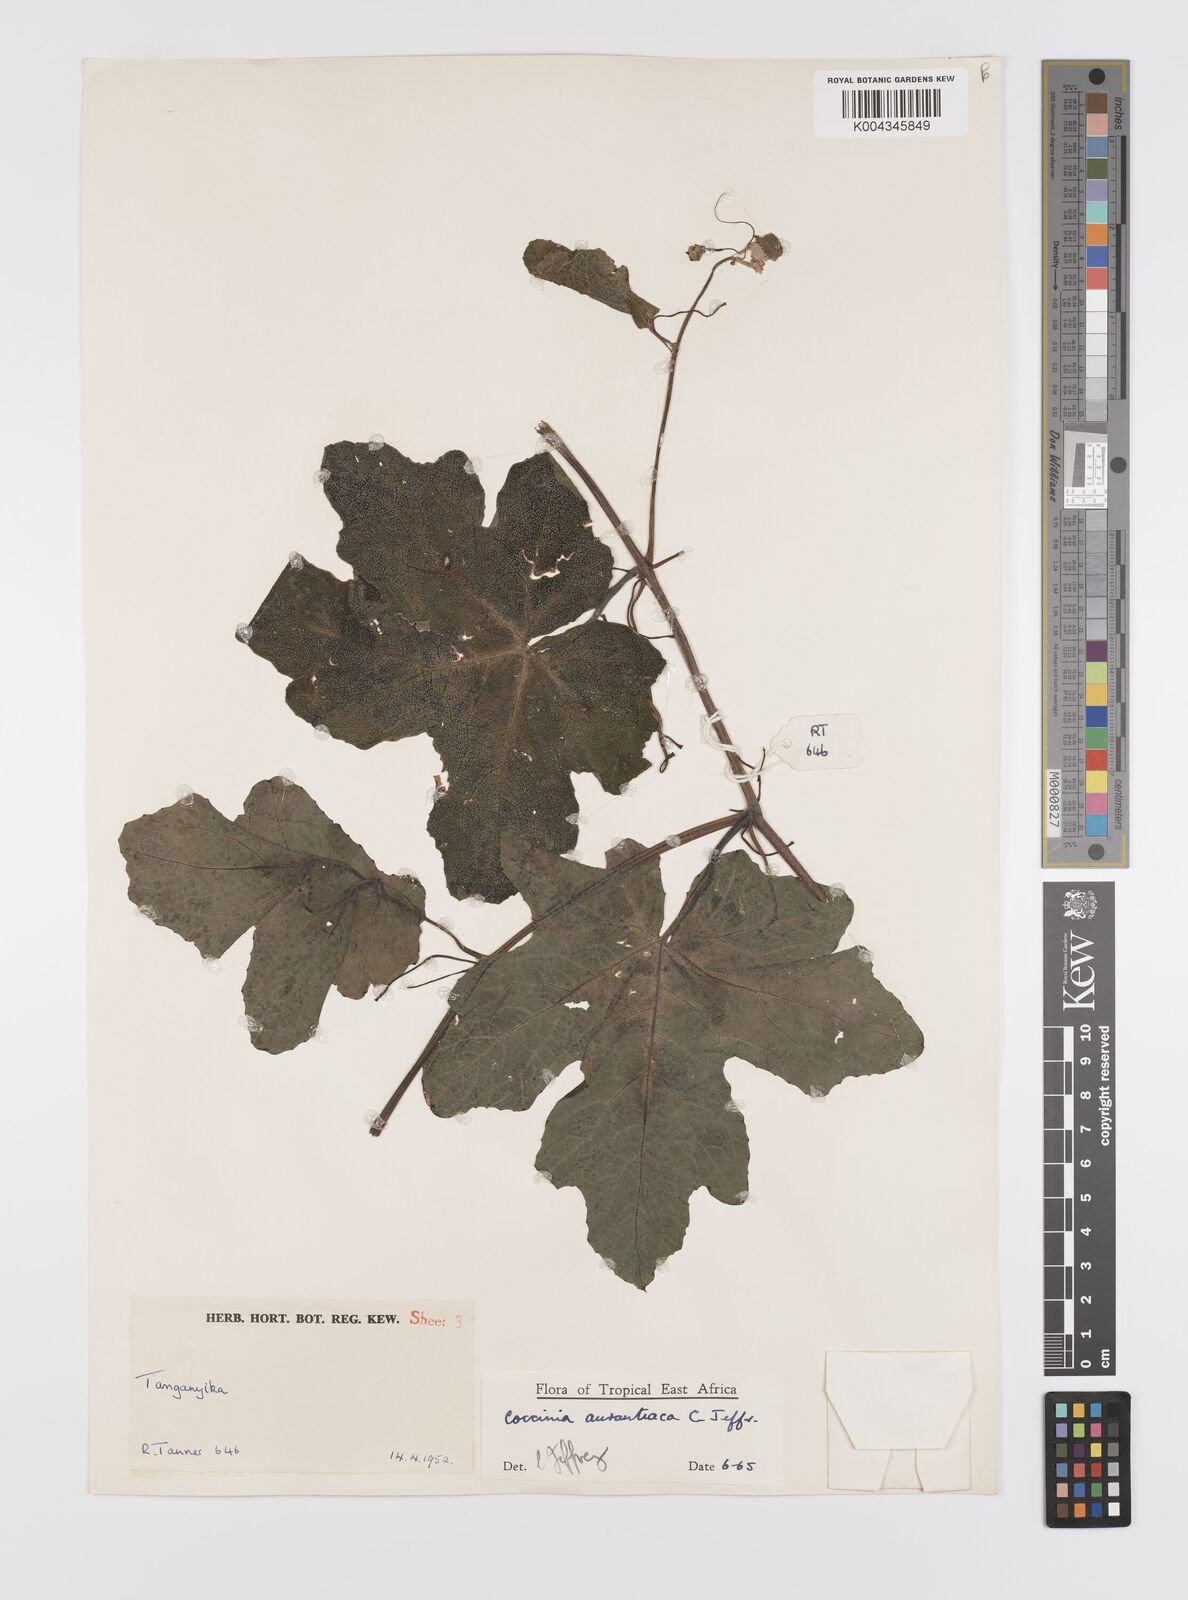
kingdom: Plantae
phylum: Tracheophyta
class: Magnoliopsida
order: Cucurbitales
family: Cucurbitaceae
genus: Coccinia
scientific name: Coccinia adoensis
